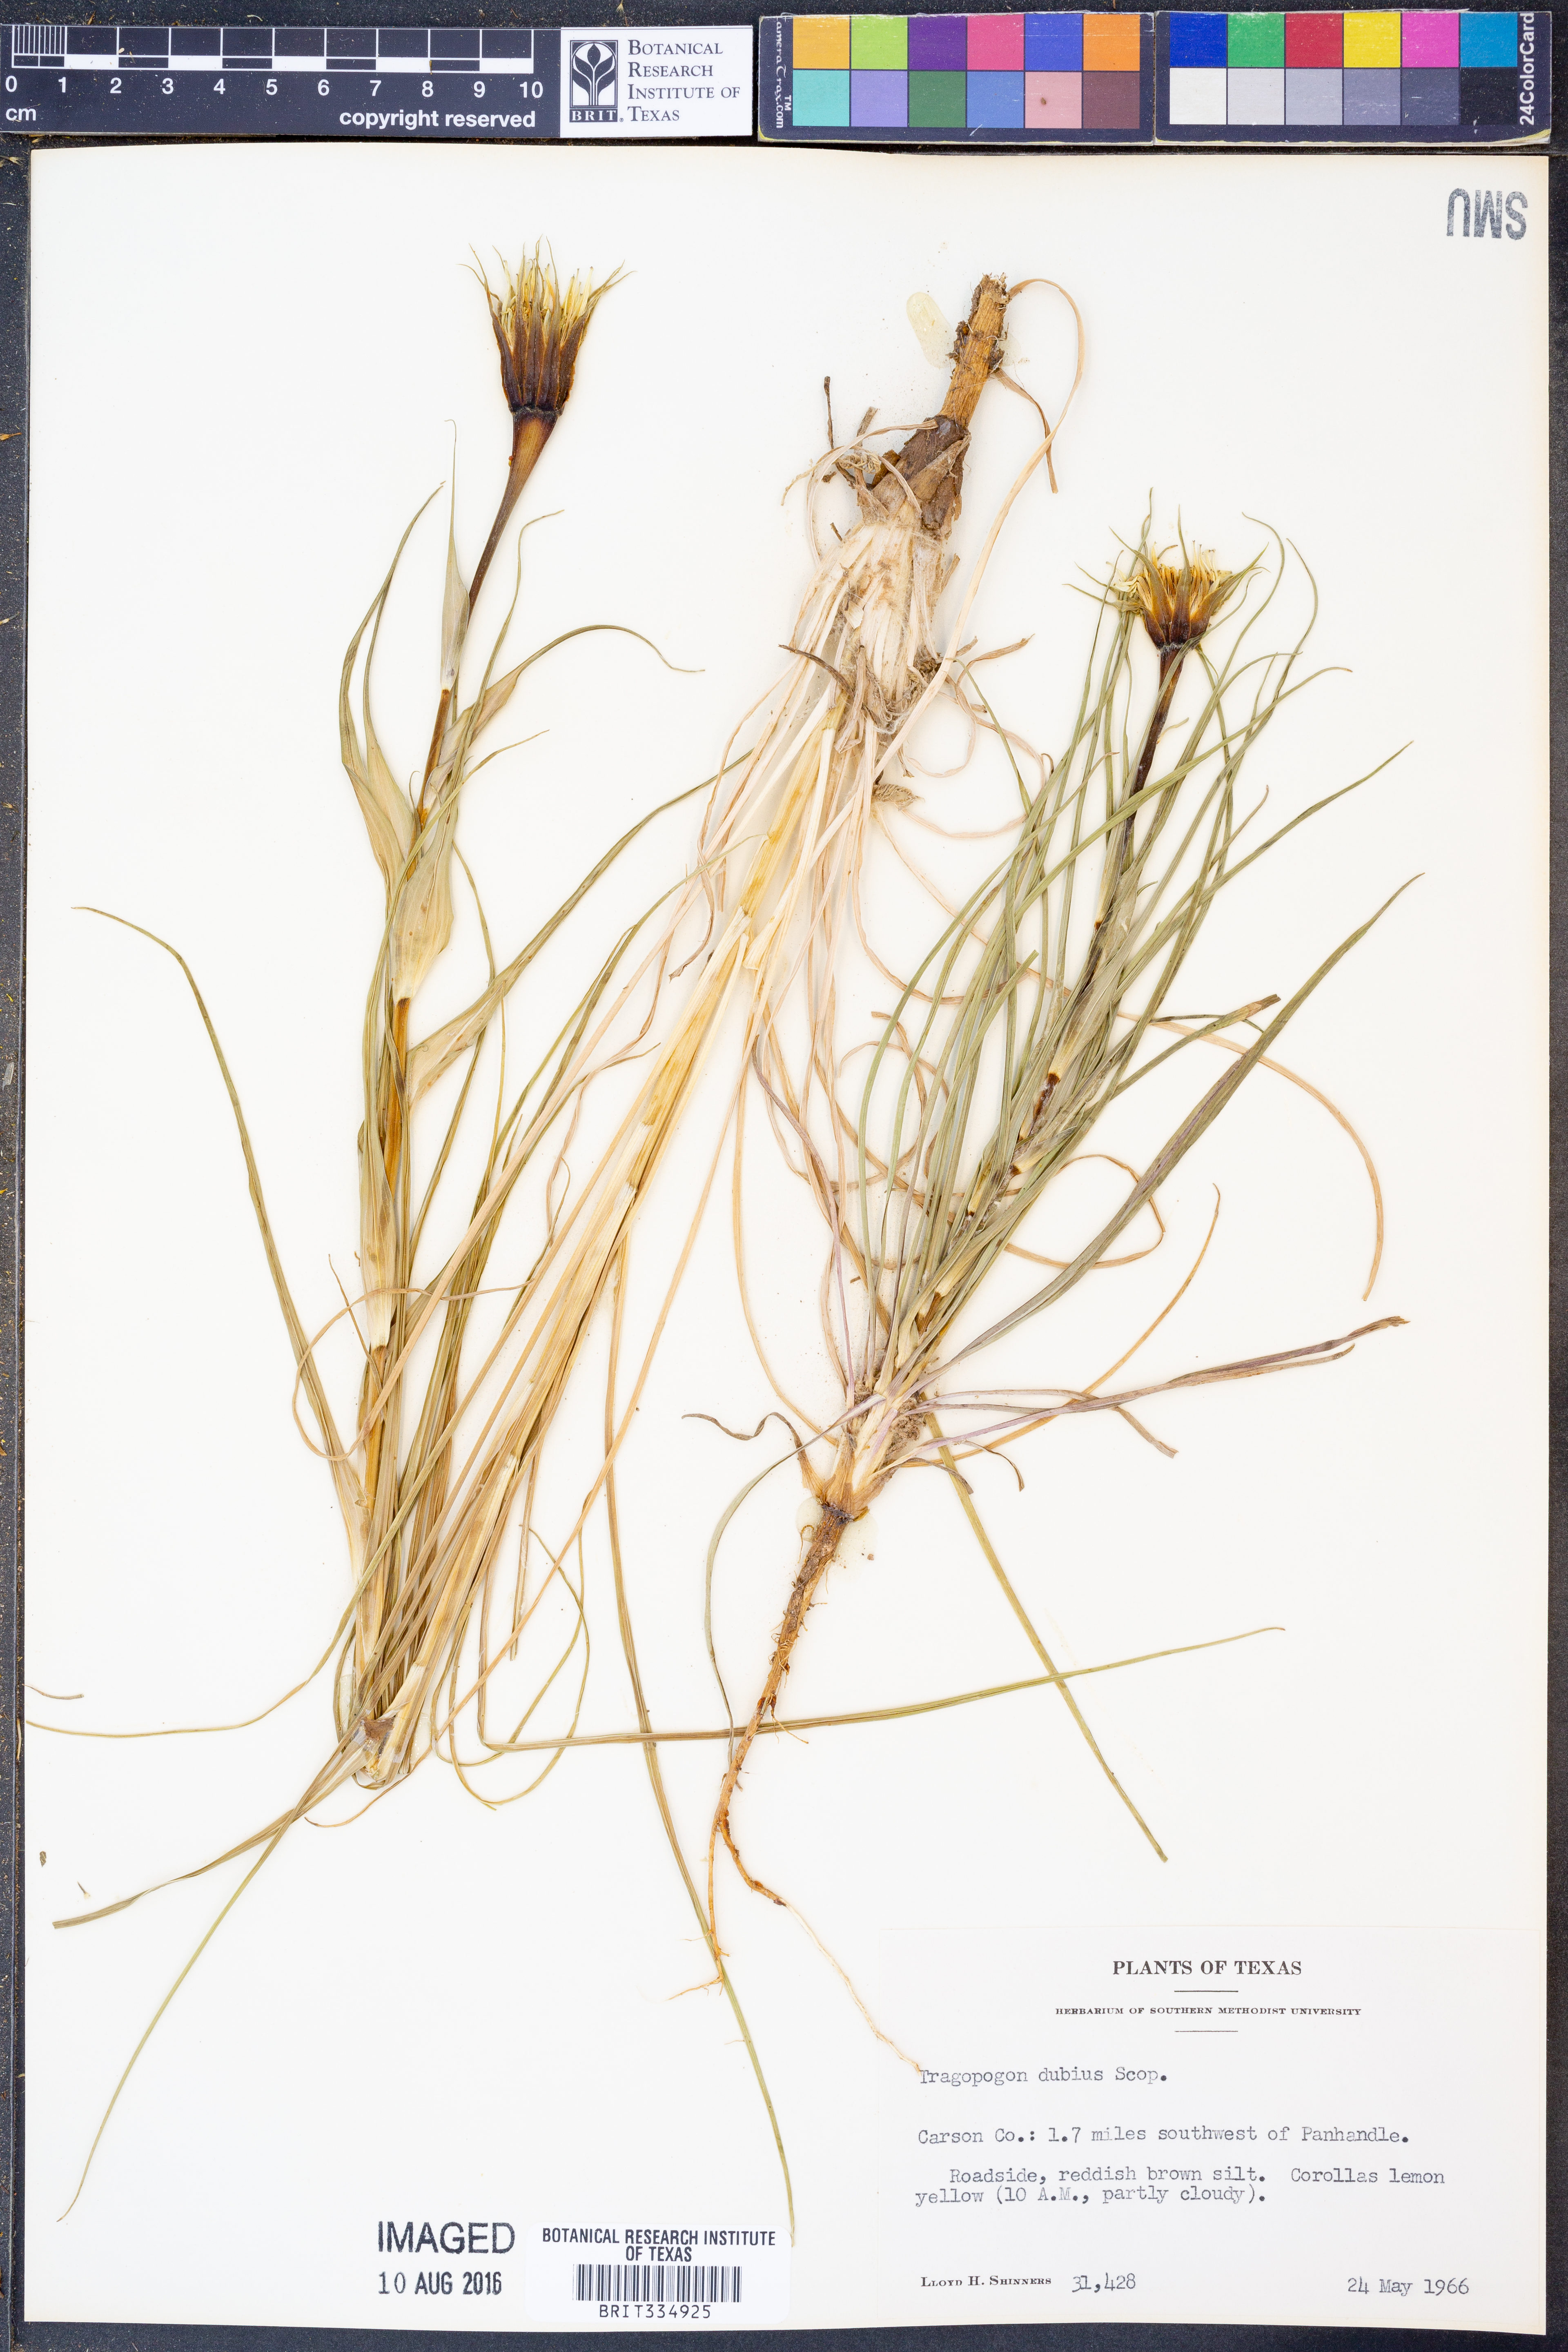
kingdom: Plantae
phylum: Tracheophyta
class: Magnoliopsida
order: Asterales
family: Asteraceae
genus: Tragopogon
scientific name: Tragopogon dubius
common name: Yellow salsify
